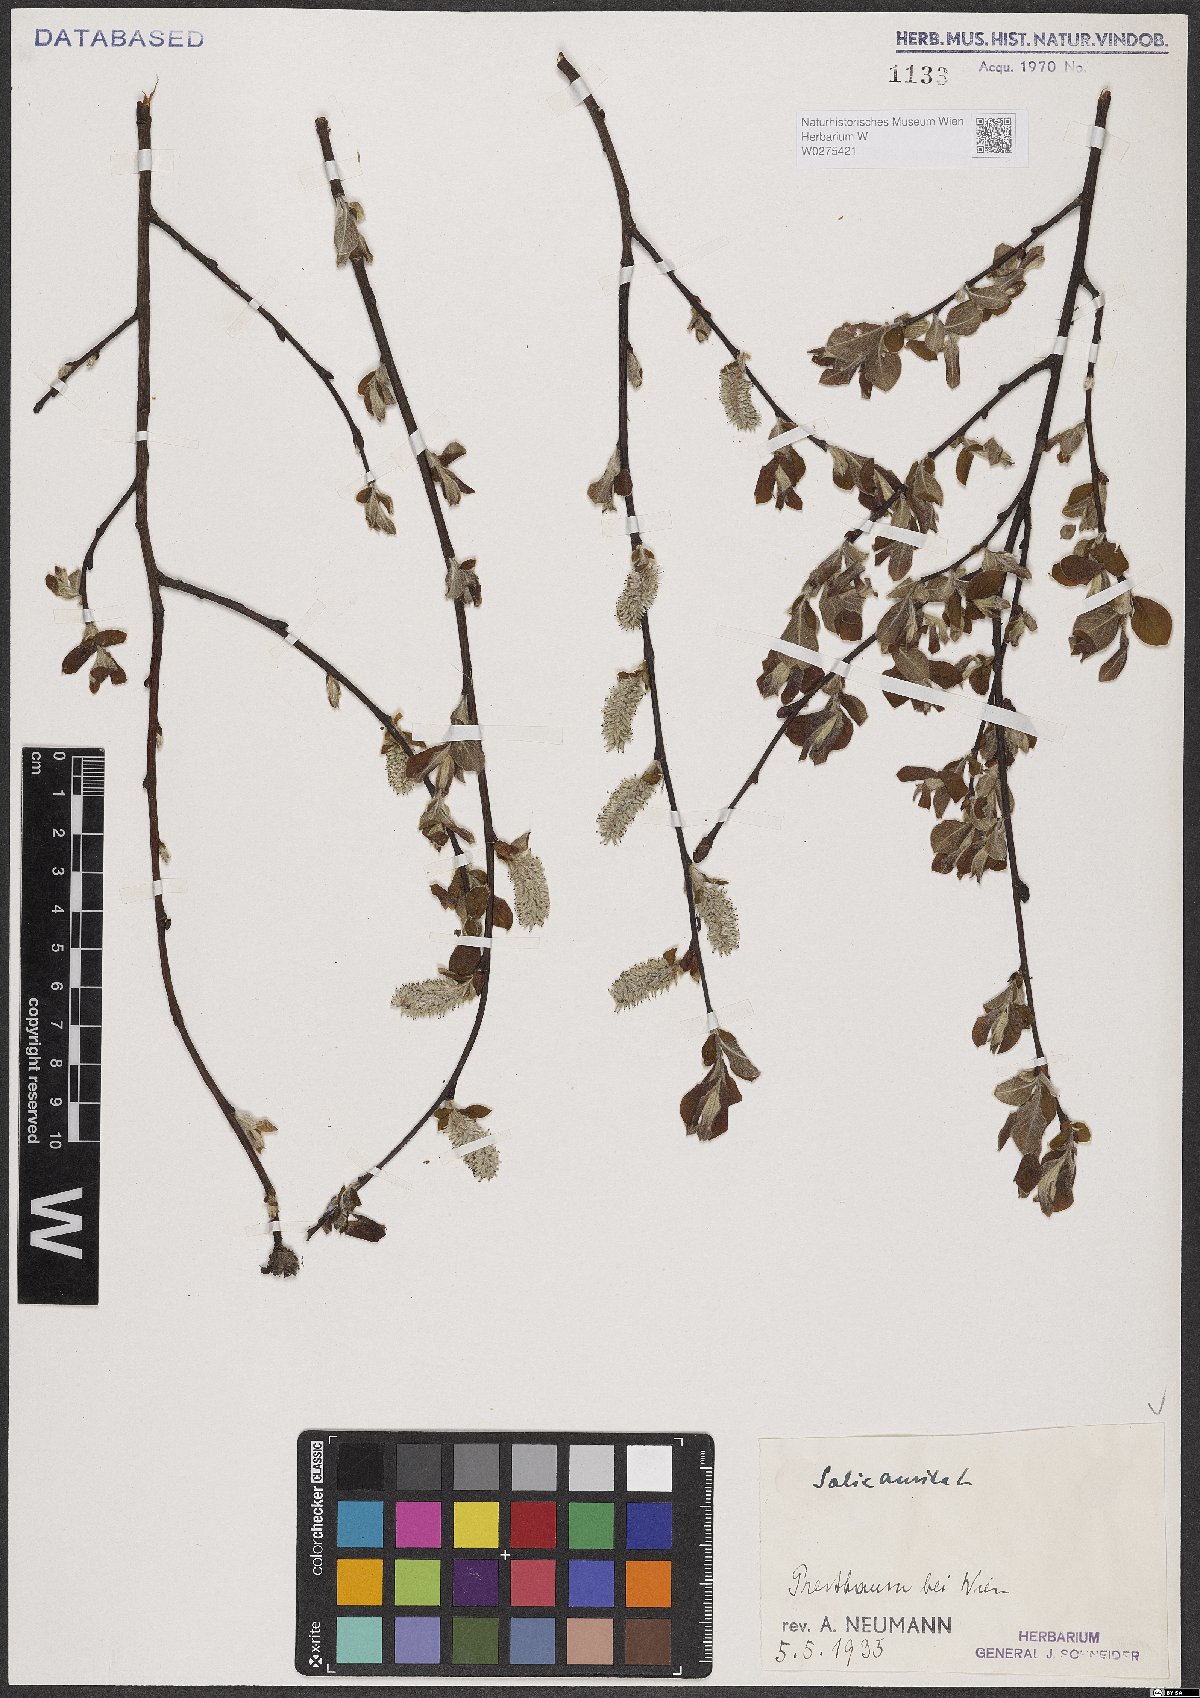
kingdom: Plantae
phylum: Tracheophyta
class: Magnoliopsida
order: Malpighiales
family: Salicaceae
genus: Salix
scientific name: Salix aurita
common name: Eared willow
